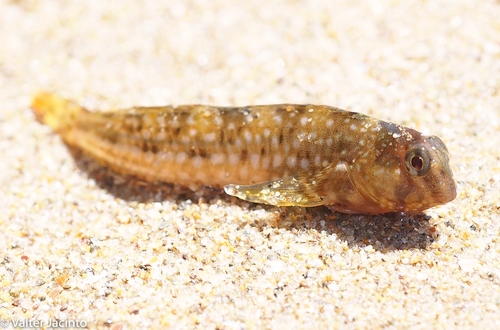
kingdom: Animalia
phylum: Chordata
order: Perciformes
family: Blenniidae
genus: Coryphoblennius
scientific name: Coryphoblennius galerita
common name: Montagu's blenny
